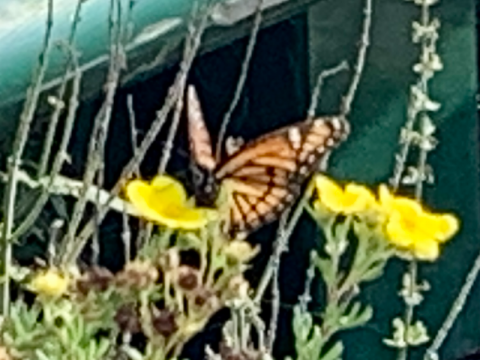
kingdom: Animalia
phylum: Arthropoda
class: Insecta
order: Lepidoptera
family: Nymphalidae
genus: Limenitis
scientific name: Limenitis archippus
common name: Viceroy
